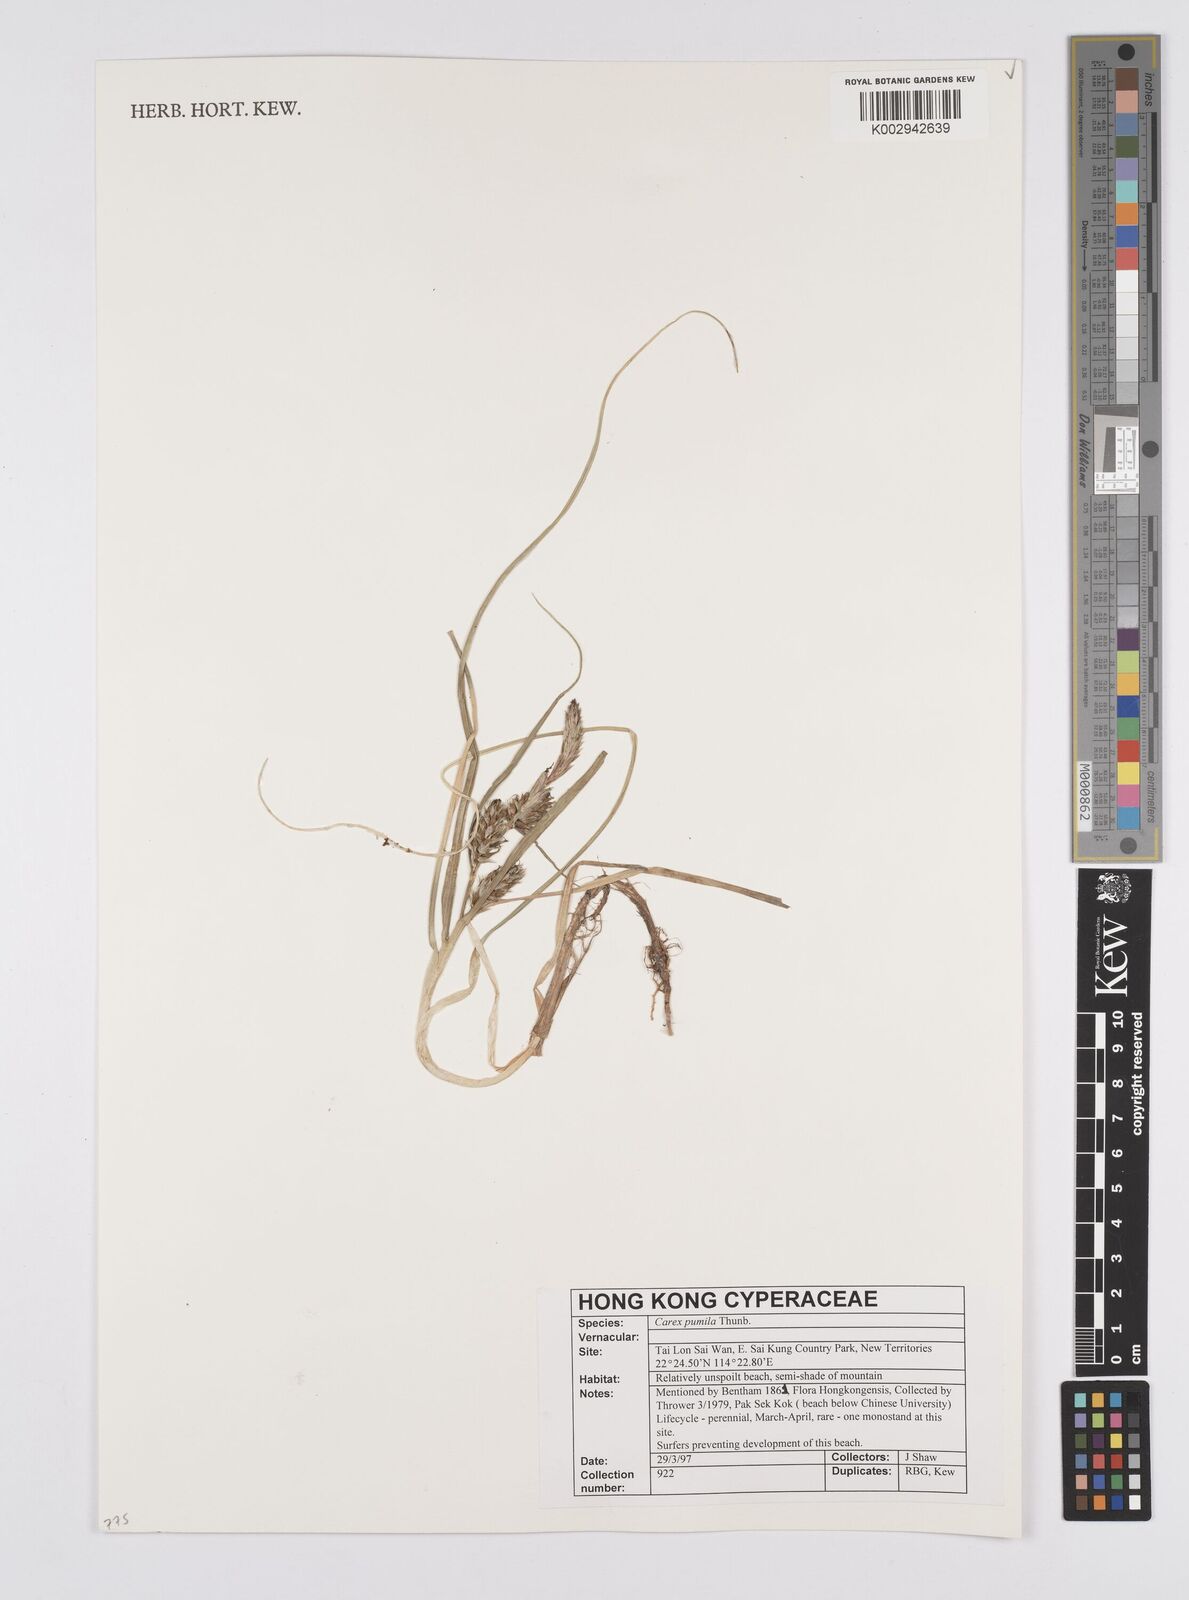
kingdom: Plantae
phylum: Tracheophyta
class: Liliopsida
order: Poales
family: Cyperaceae
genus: Carex
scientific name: Carex pumila
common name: Dwarf sedge
